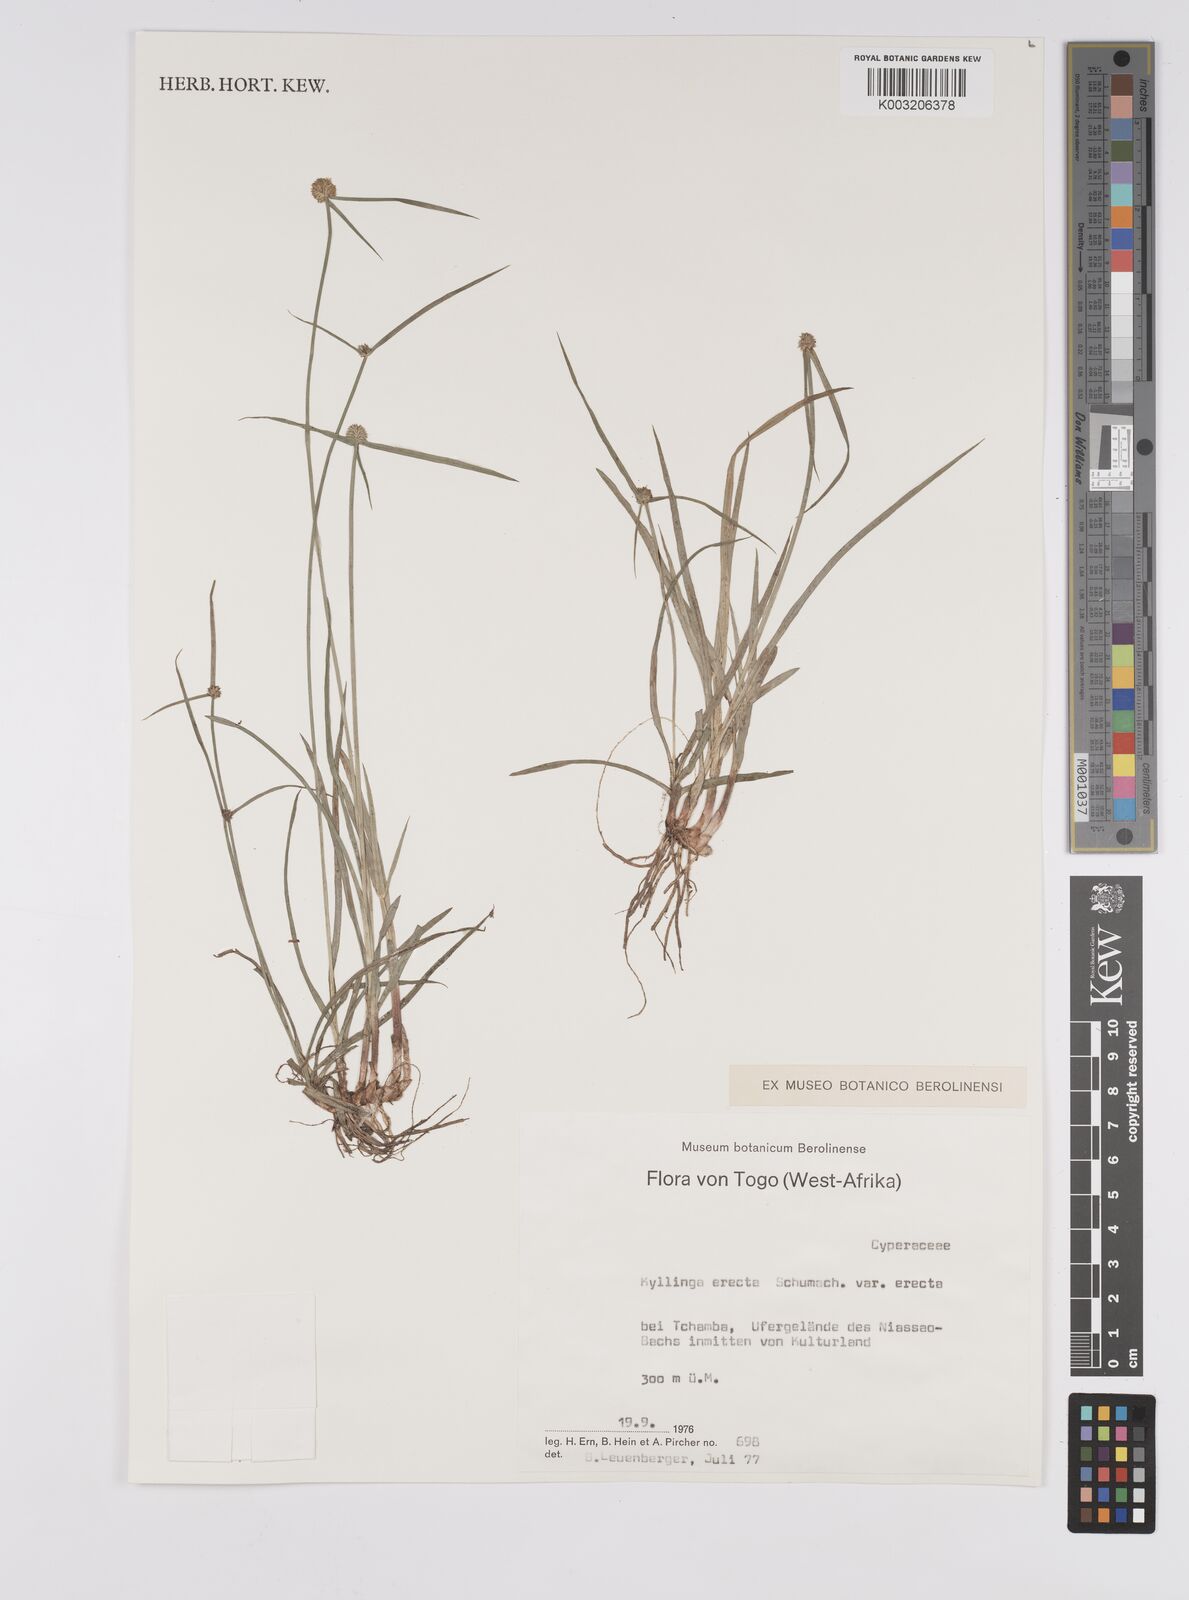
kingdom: Plantae
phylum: Tracheophyta
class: Liliopsida
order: Poales
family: Cyperaceae
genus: Cyperus
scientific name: Cyperus erectus
